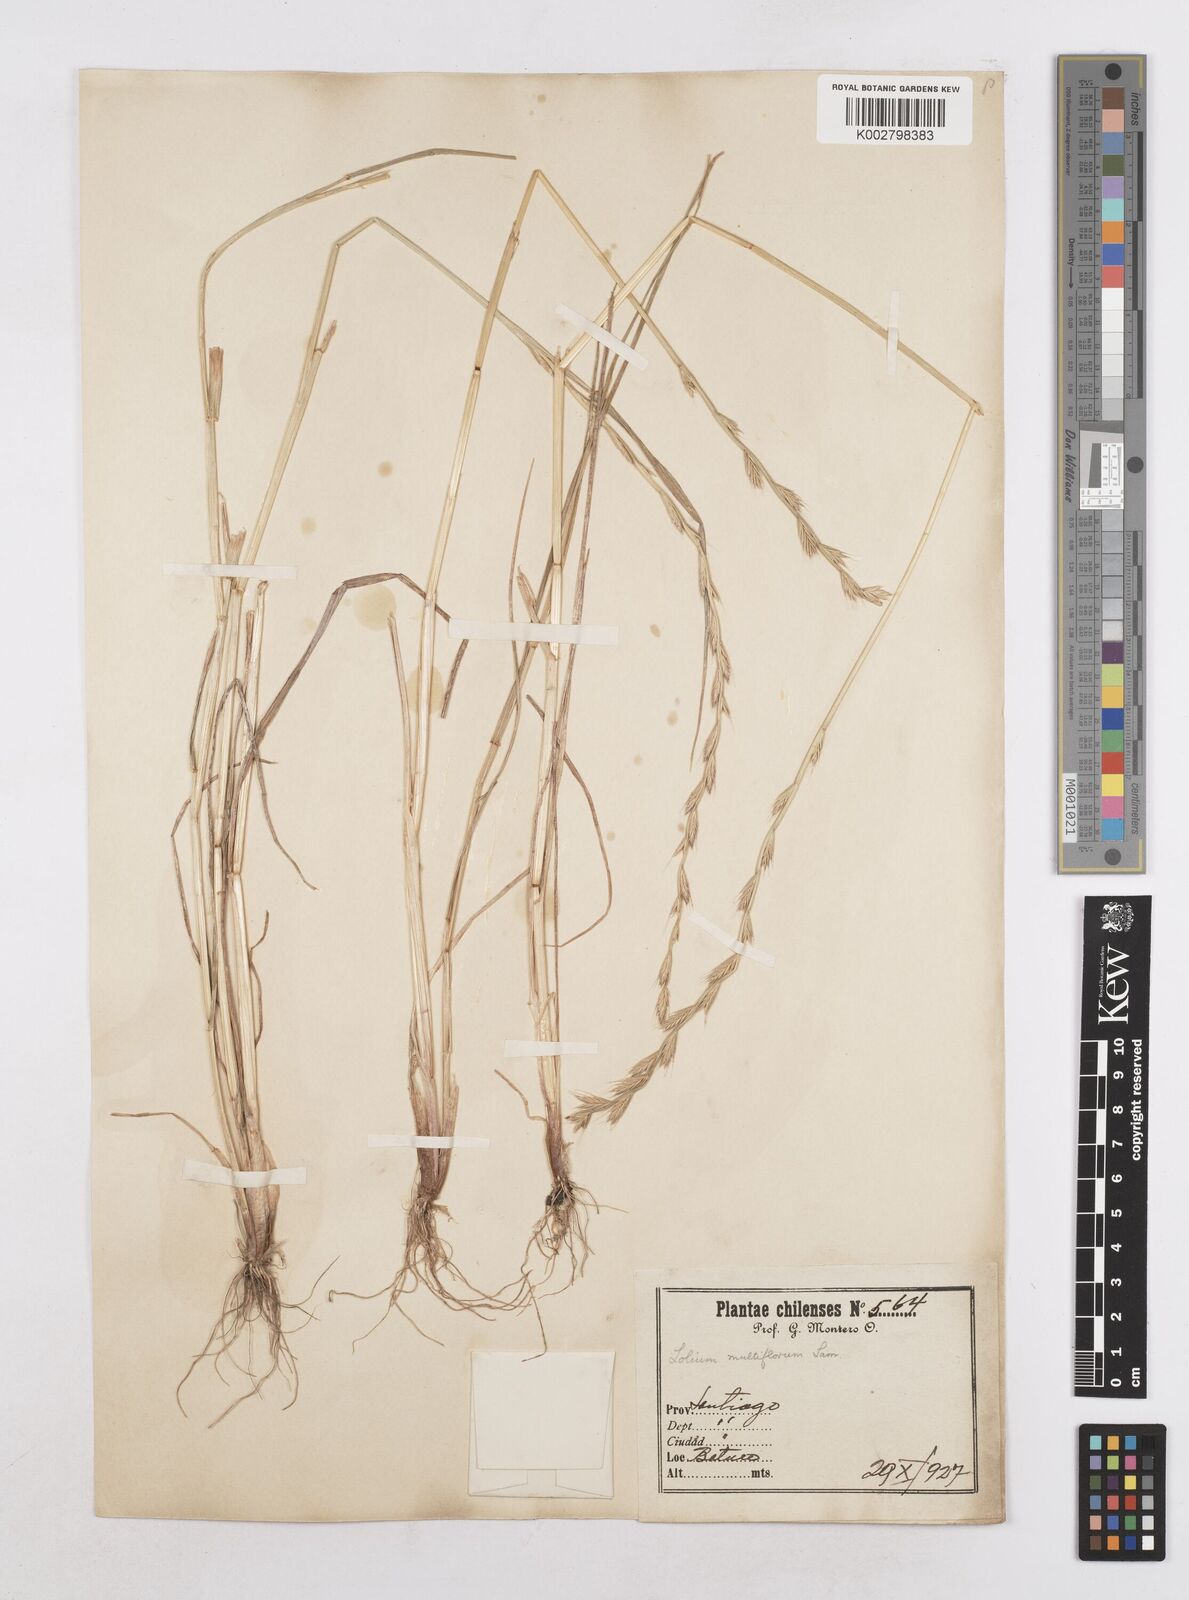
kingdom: Plantae
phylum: Tracheophyta
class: Liliopsida
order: Poales
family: Poaceae
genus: Lolium
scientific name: Lolium multiflorum
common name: Annual ryegrass
